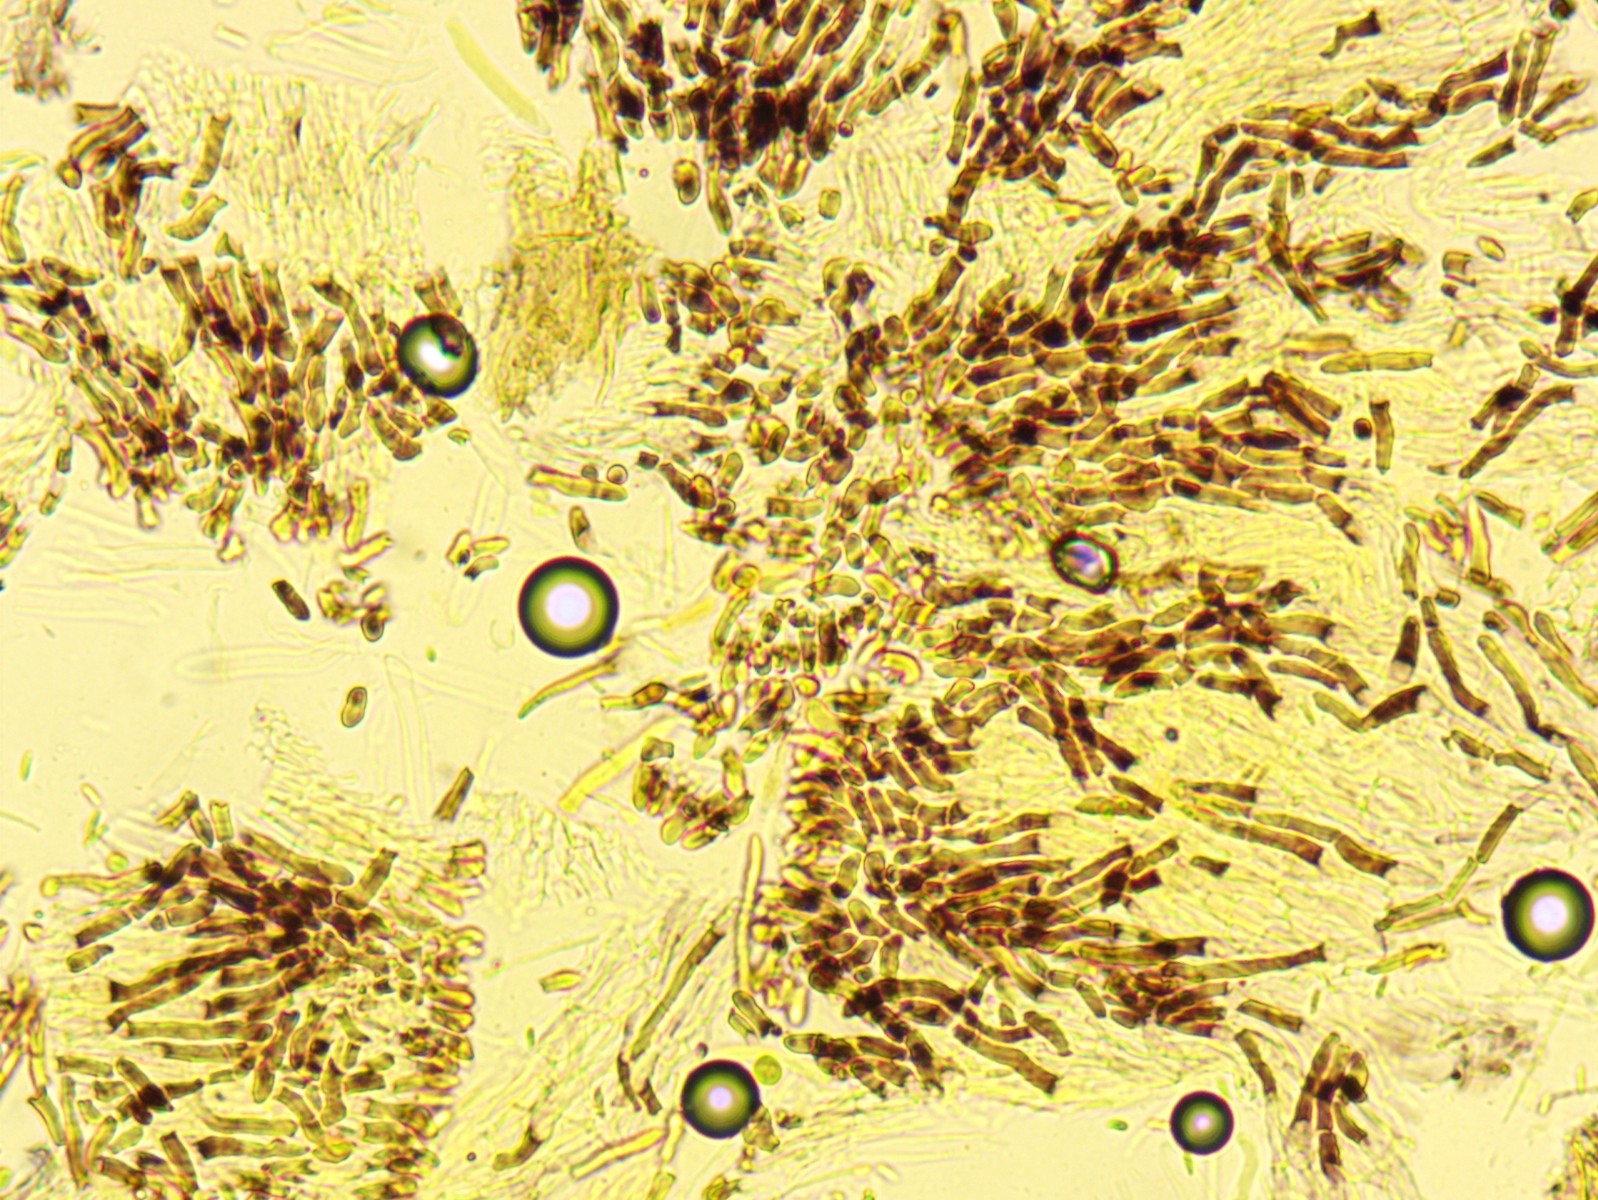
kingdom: Fungi
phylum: Ascomycota
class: Leotiomycetes
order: Helotiales
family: Hyaloscyphaceae
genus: Hyalopeziza
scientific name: Hyalopeziza millepunctata
